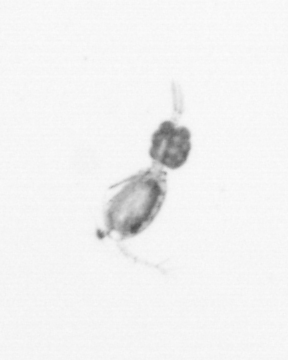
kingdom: Animalia
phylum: Arthropoda
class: Copepoda
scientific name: Copepoda
